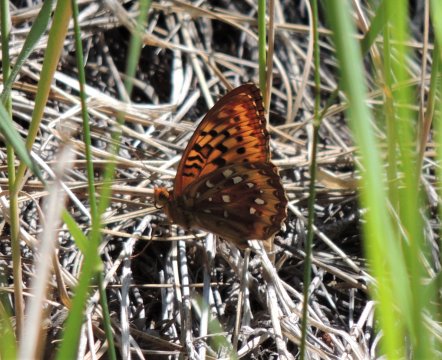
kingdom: Animalia
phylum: Arthropoda
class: Insecta
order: Lepidoptera
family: Nymphalidae
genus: Speyeria
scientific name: Speyeria cybele
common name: Great Spangled Fritillary
